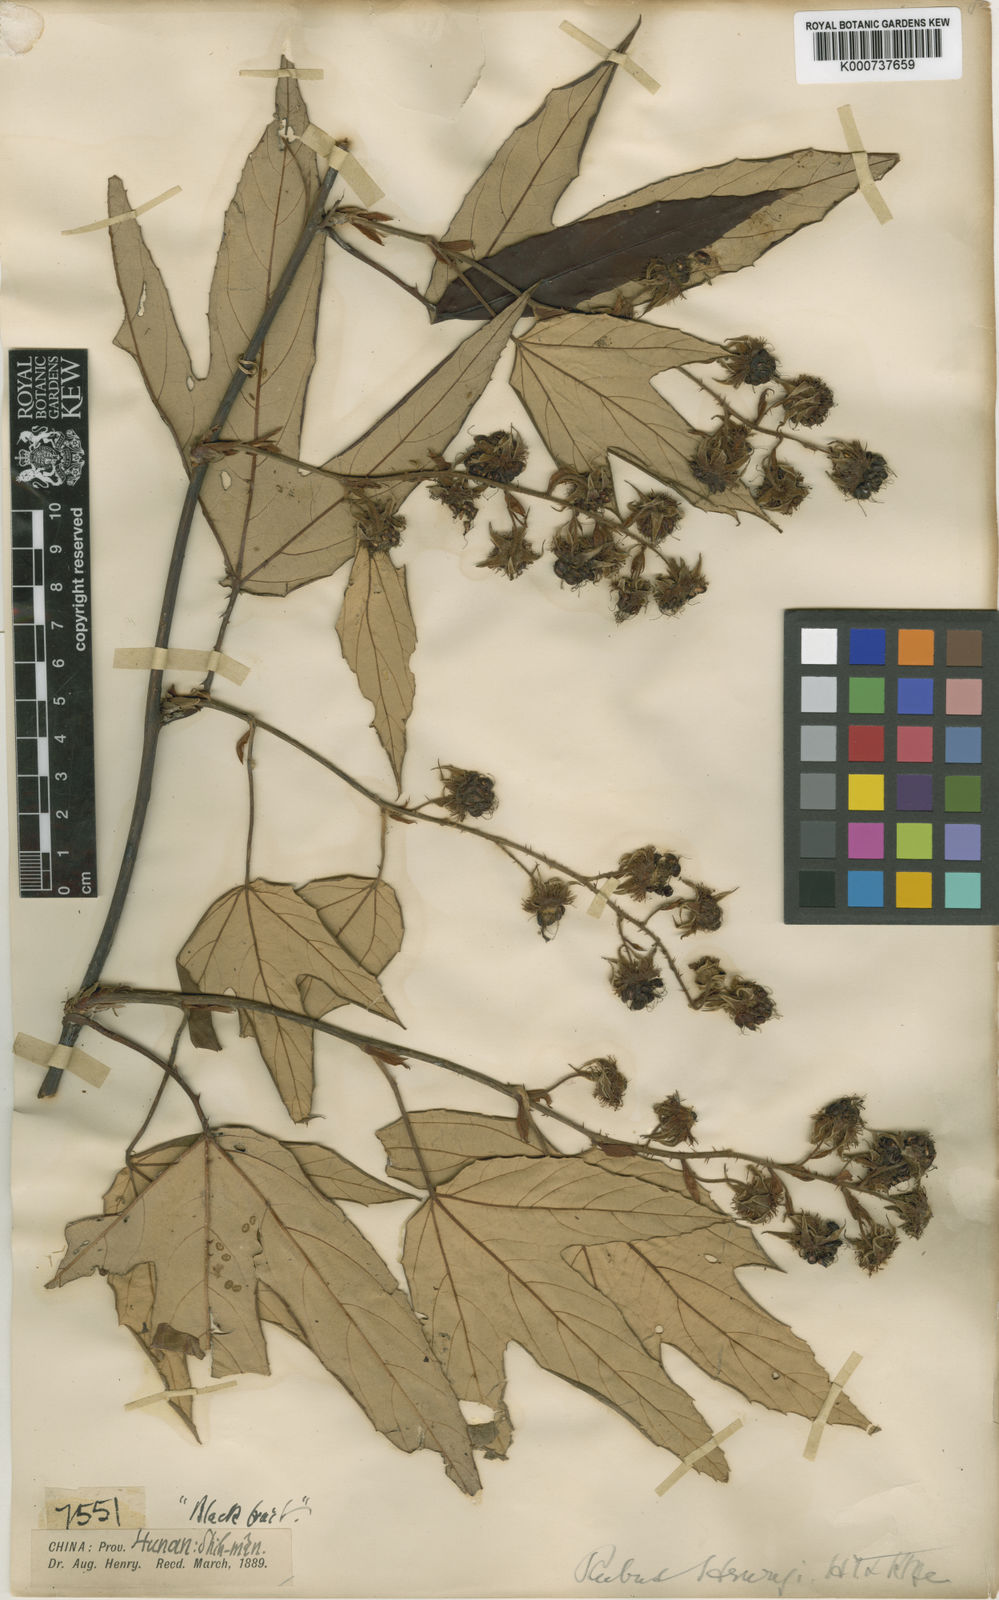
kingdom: Plantae
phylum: Tracheophyta
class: Magnoliopsida
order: Rosales
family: Rosaceae
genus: Rubus
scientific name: Rubus henryi
